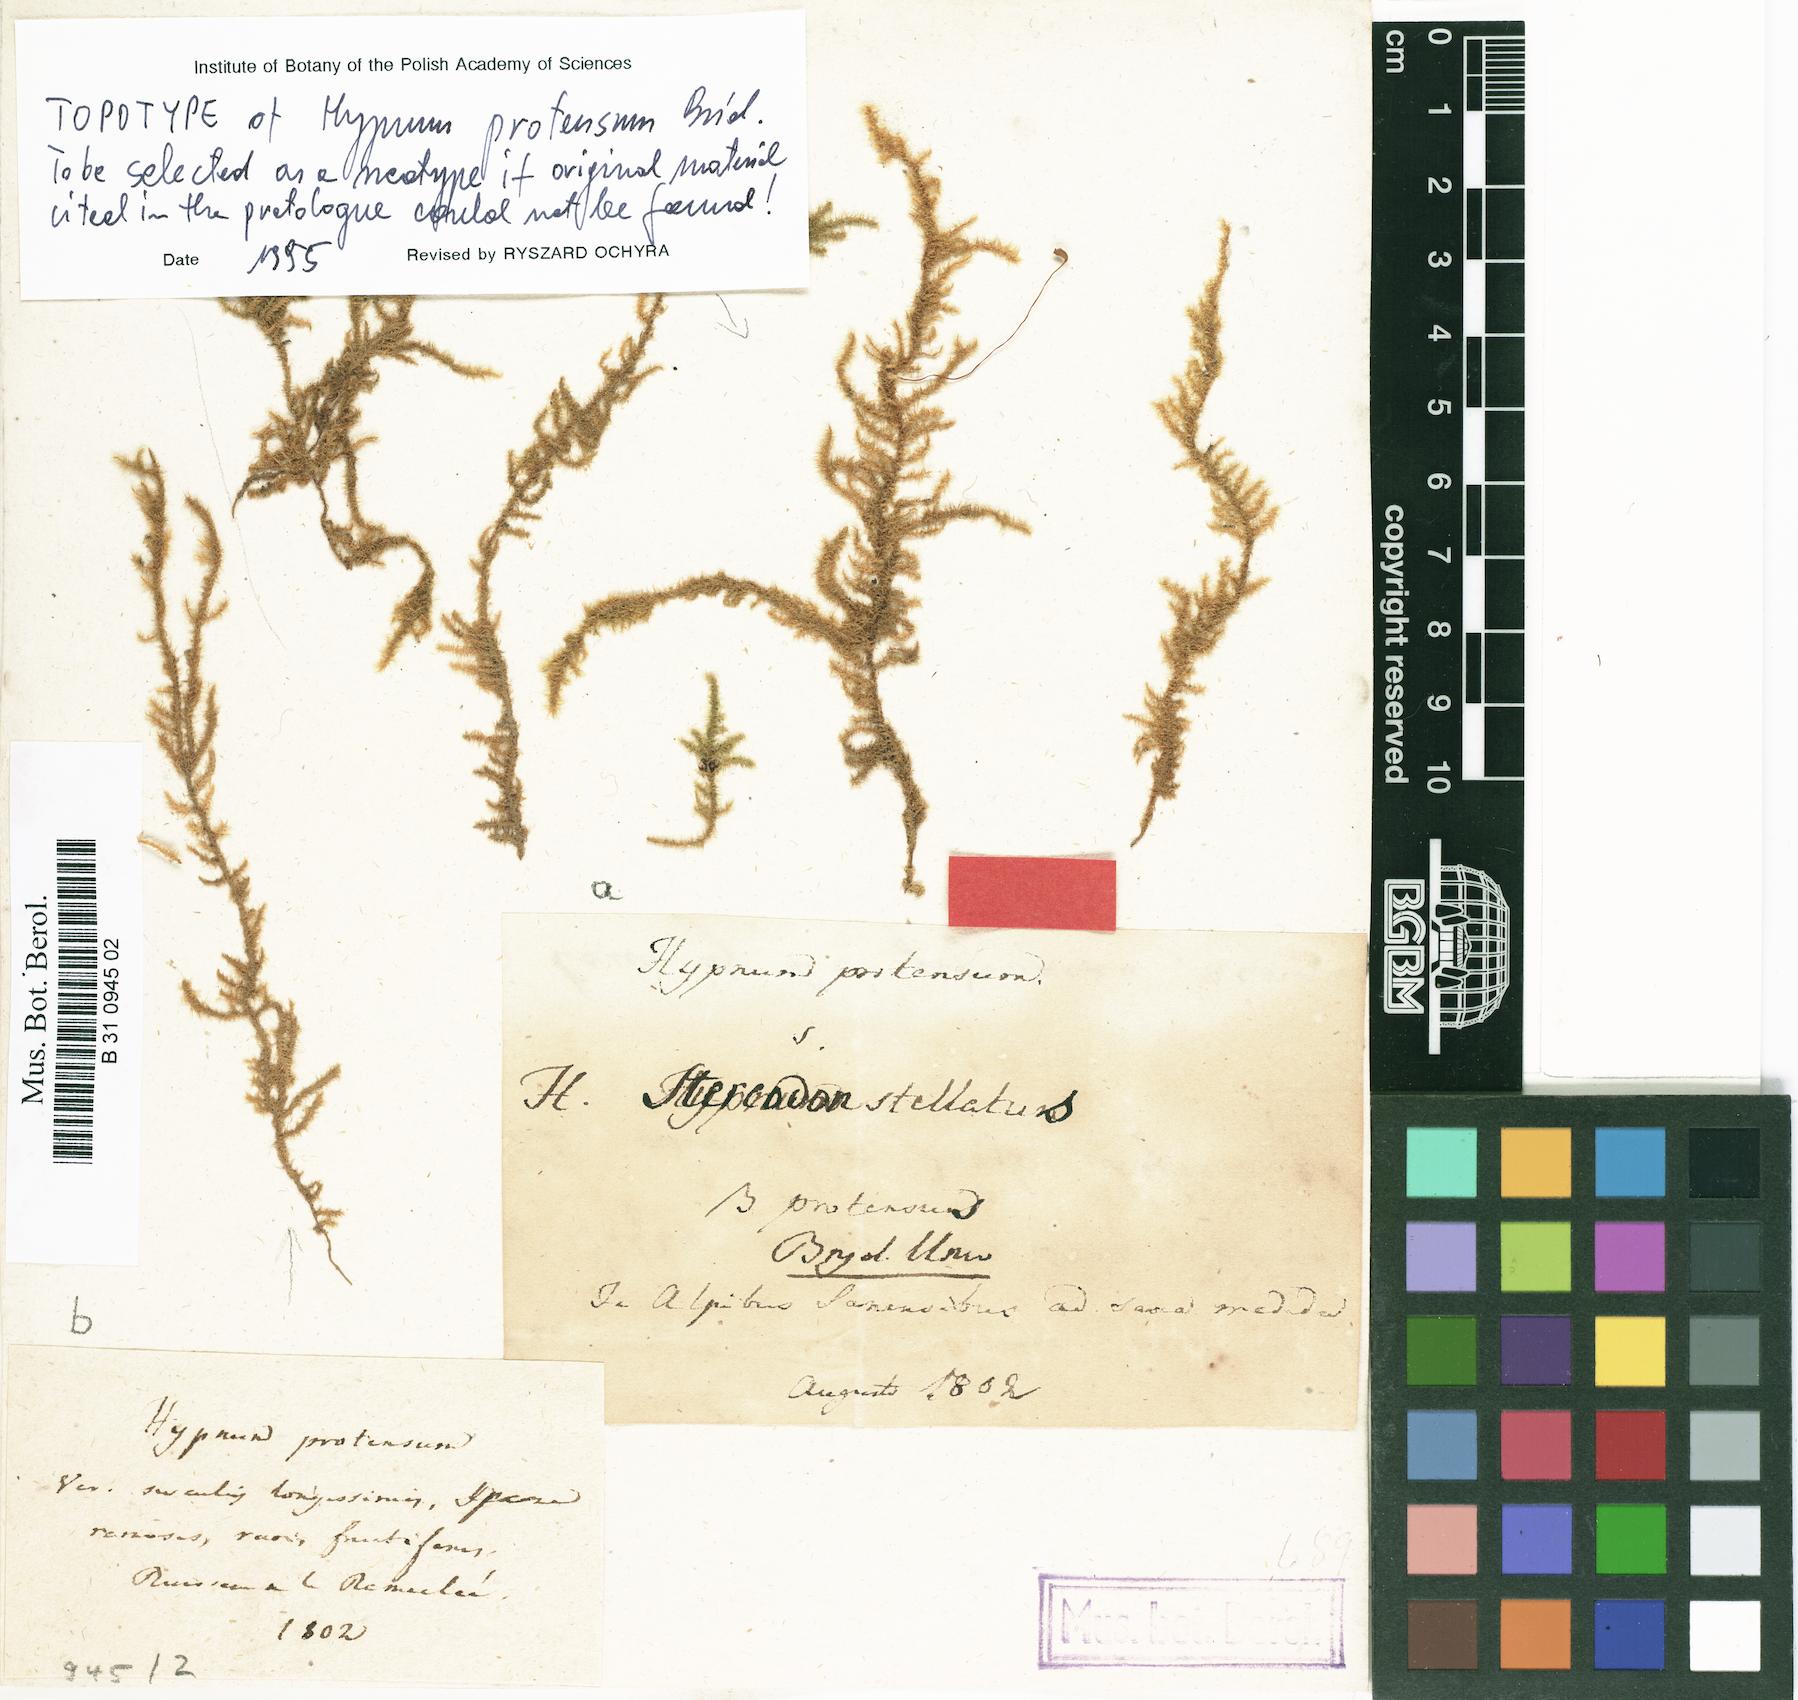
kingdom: Plantae
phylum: Bryophyta
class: Bryopsida
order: Hypnales
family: Amblystegiaceae
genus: Campylium
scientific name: Campylium stellatum
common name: Yellow starry fen moss
